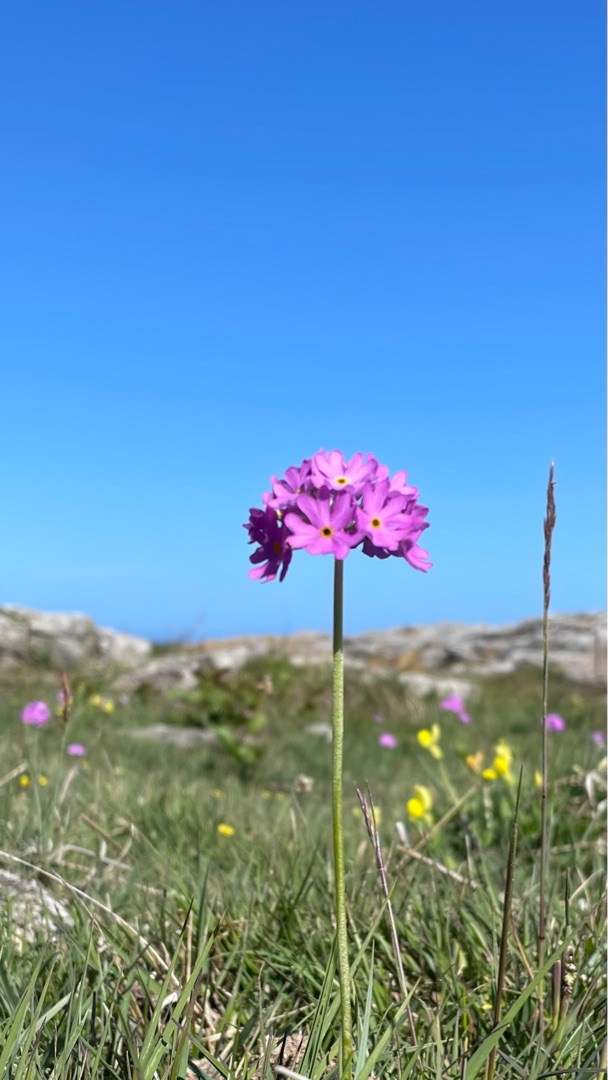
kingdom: Plantae
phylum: Tracheophyta
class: Magnoliopsida
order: Ericales
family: Primulaceae
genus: Primula
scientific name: Primula farinosa
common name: Melet kodriver
